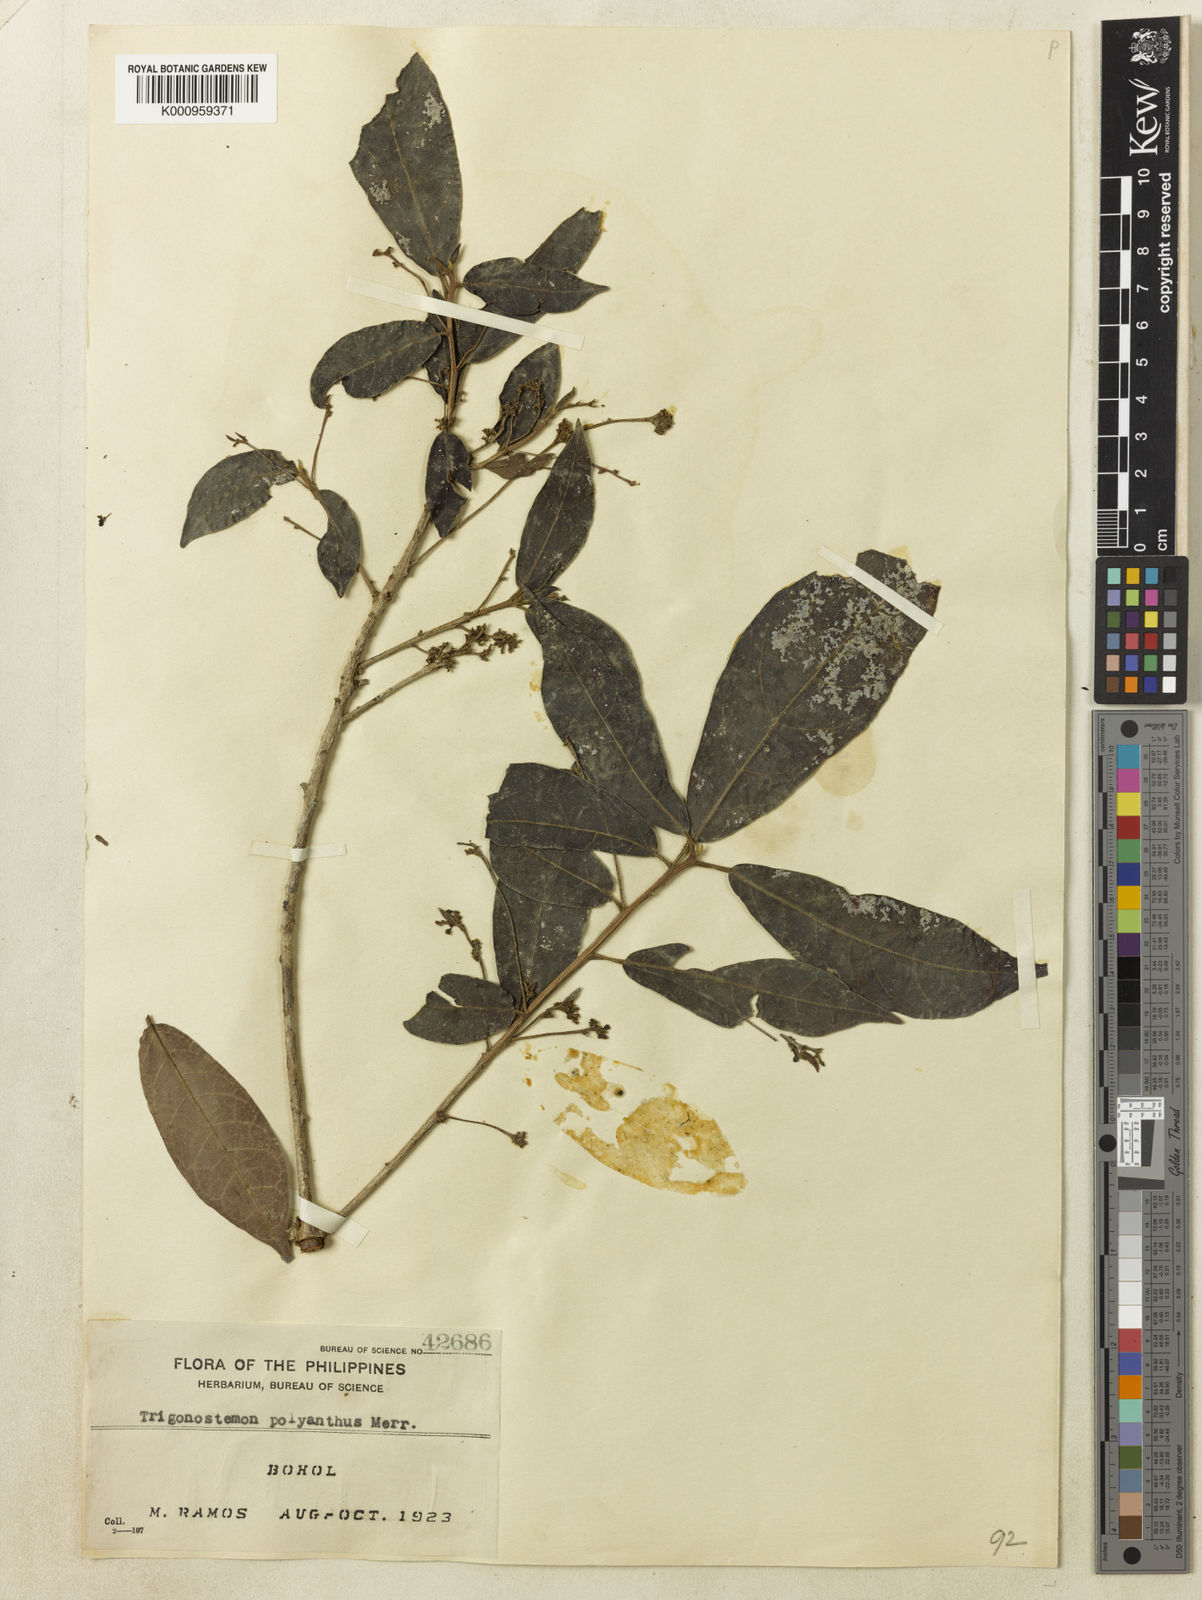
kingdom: Plantae
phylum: Tracheophyta
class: Magnoliopsida
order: Malpighiales
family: Euphorbiaceae
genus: Trigonostemon
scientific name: Trigonostemon polyanthus
